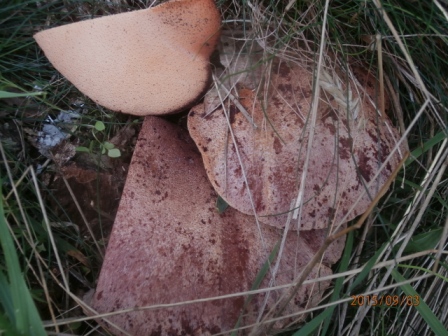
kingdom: Fungi
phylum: Basidiomycota
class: Agaricomycetes
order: Agaricales
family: Fistulinaceae
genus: Fistulina
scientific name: Fistulina hepatica
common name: oksetunge
